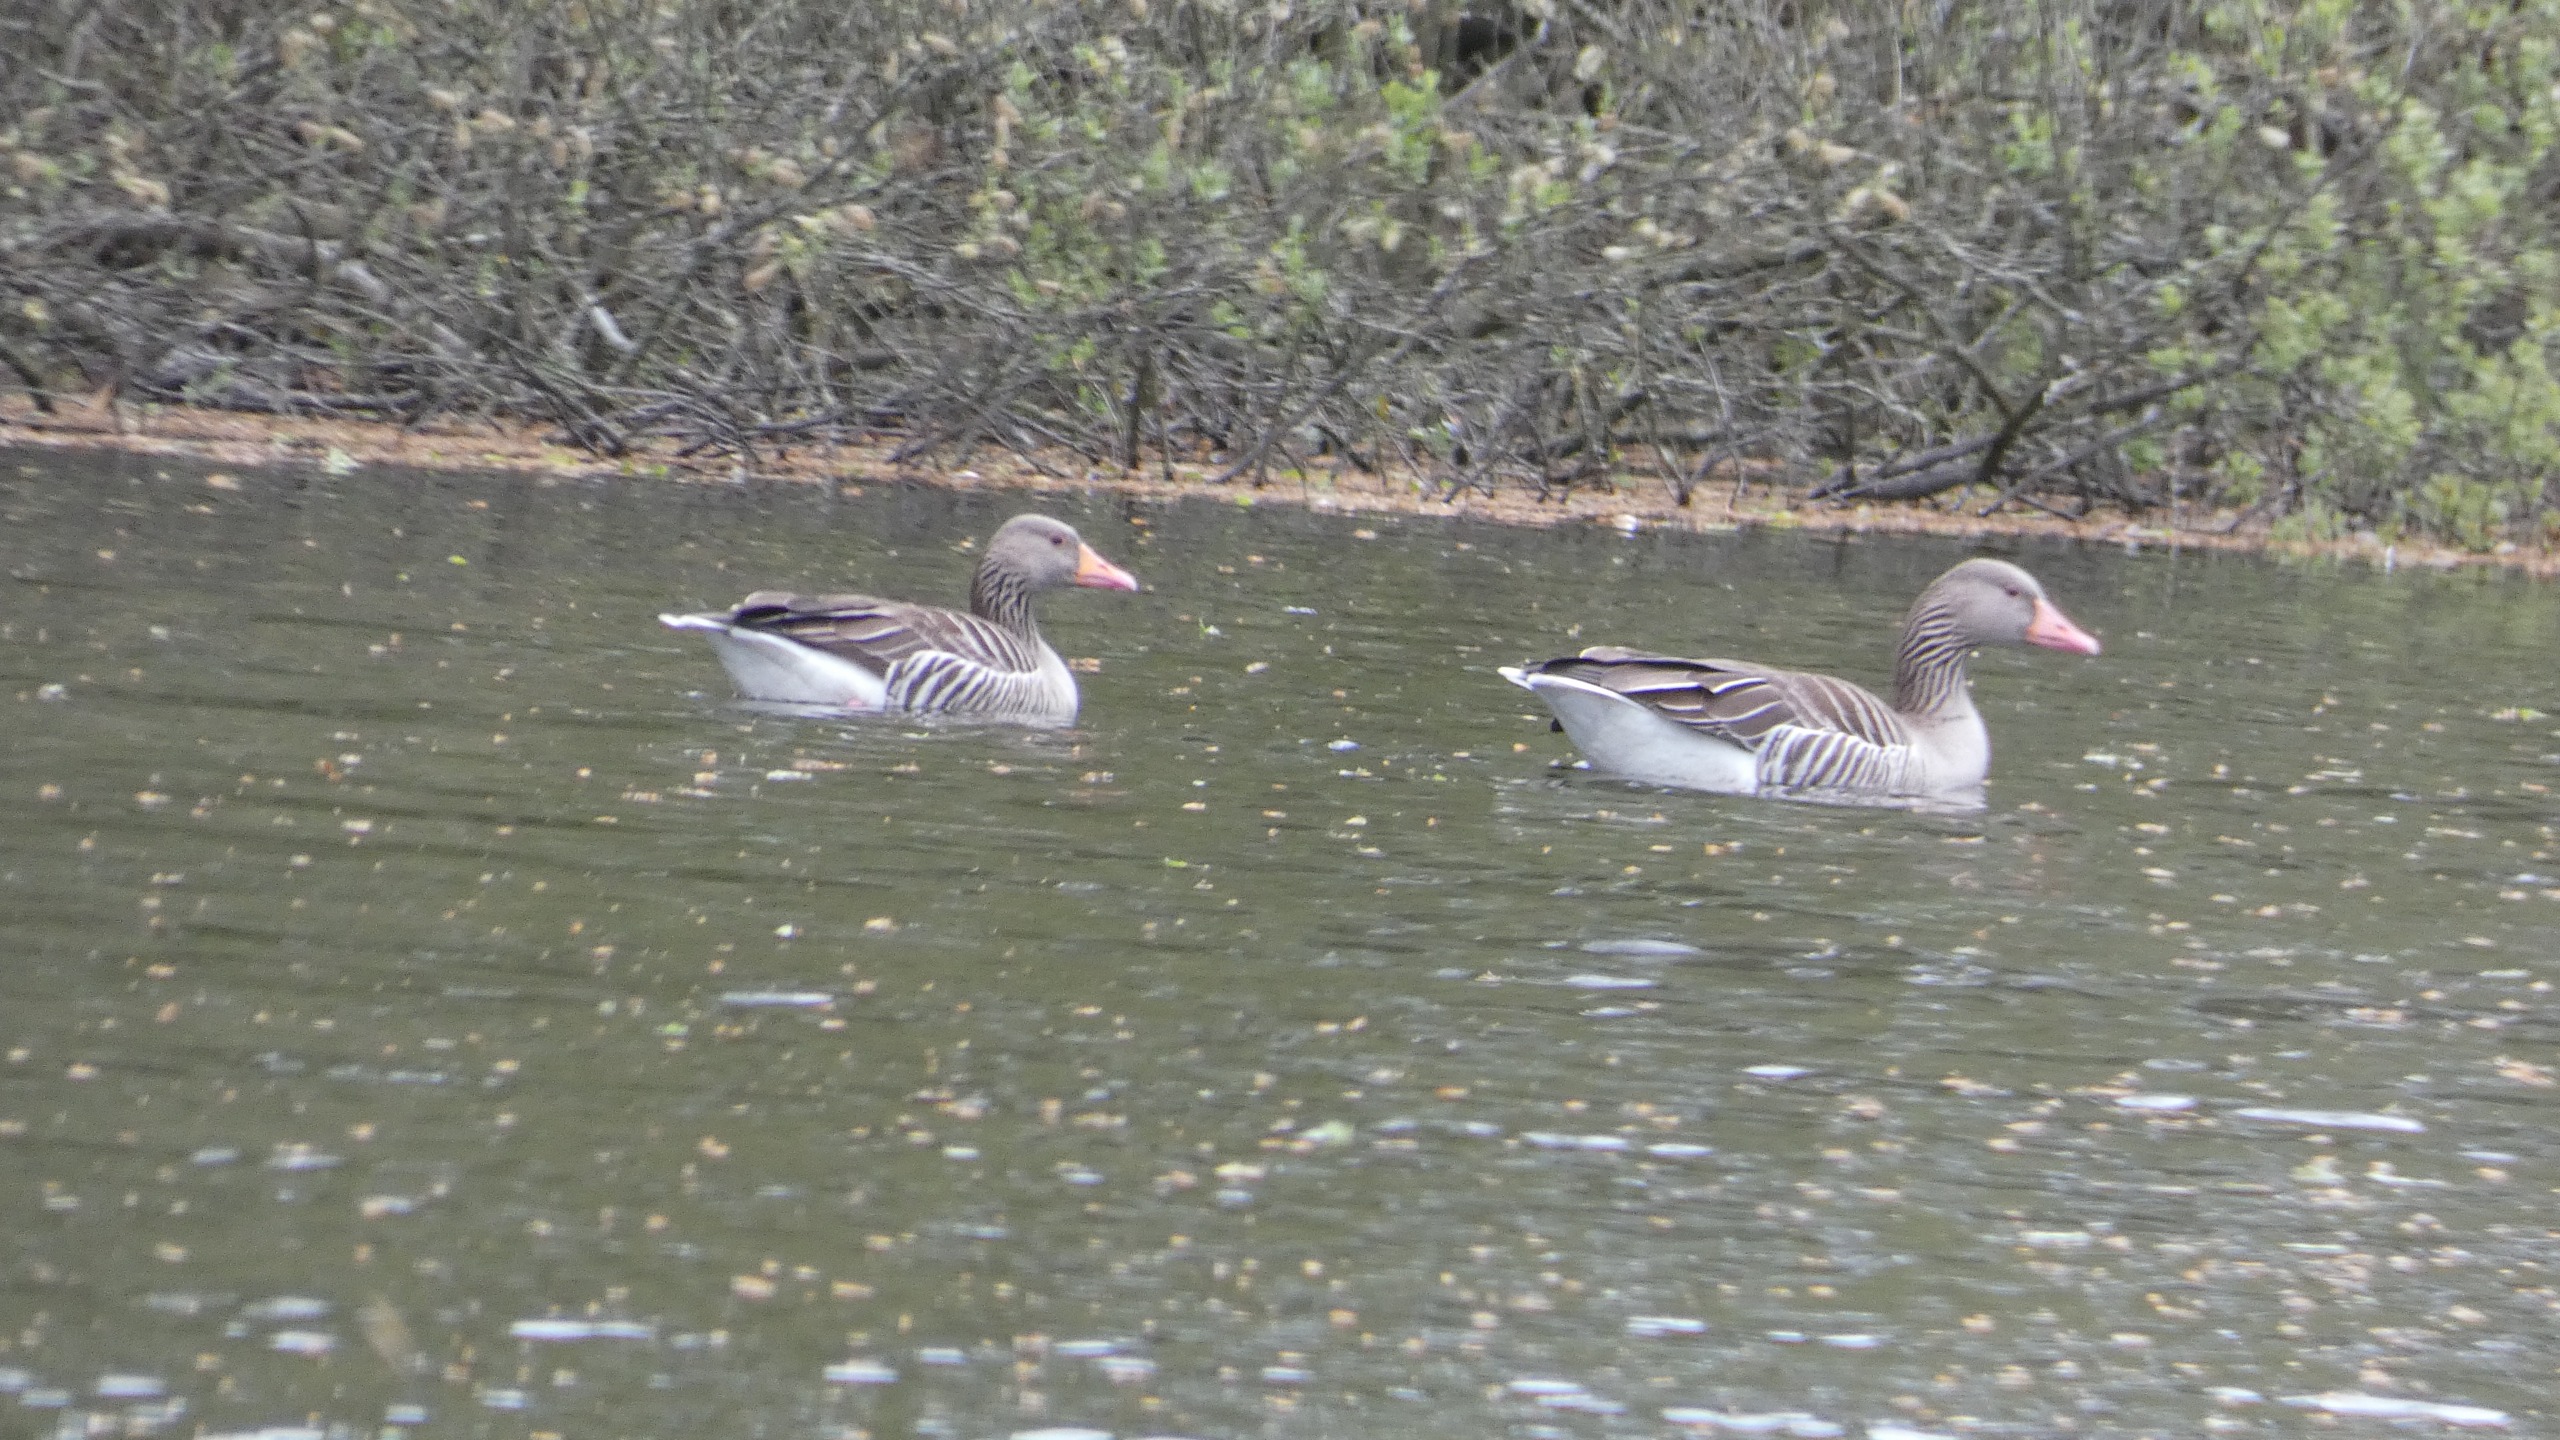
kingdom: Animalia
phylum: Chordata
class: Aves
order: Anseriformes
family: Anatidae
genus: Anser
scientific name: Anser anser
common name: Grågås
